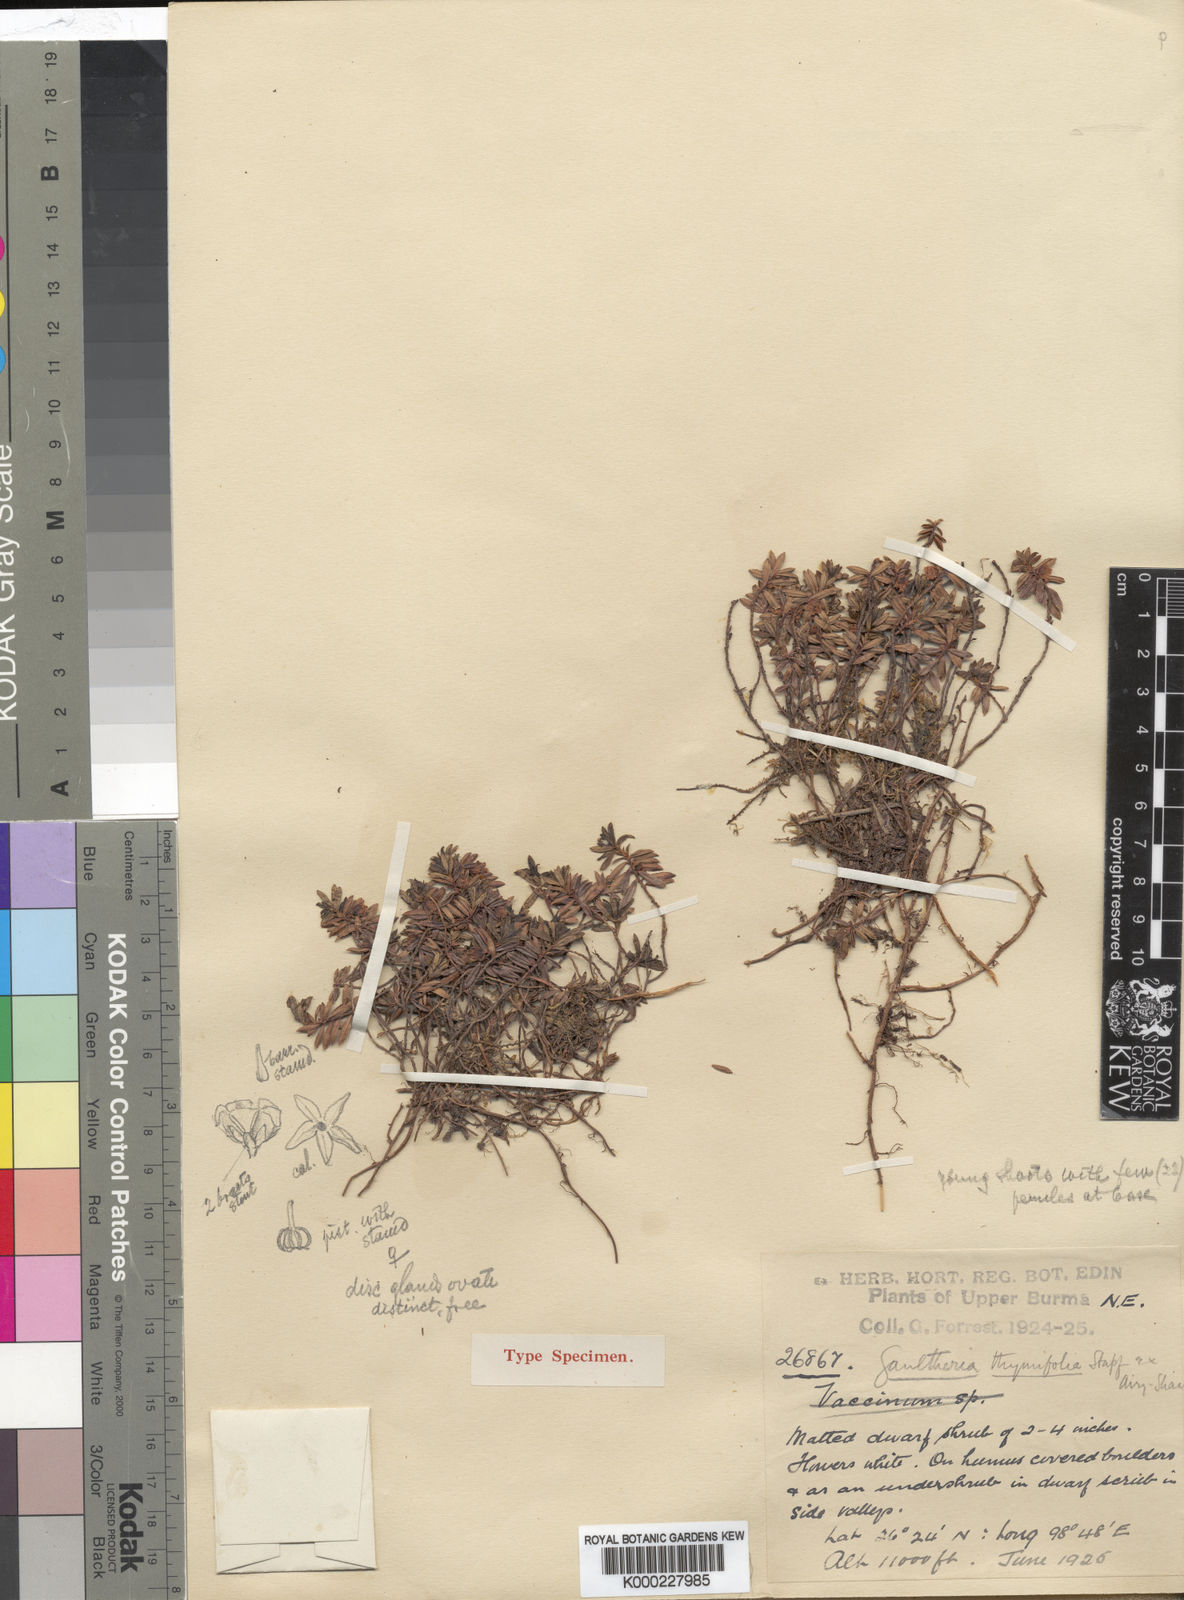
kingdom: Plantae
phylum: Tracheophyta
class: Magnoliopsida
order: Ericales
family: Ericaceae
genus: Gaultheria
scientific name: Gaultheria thymifolia
